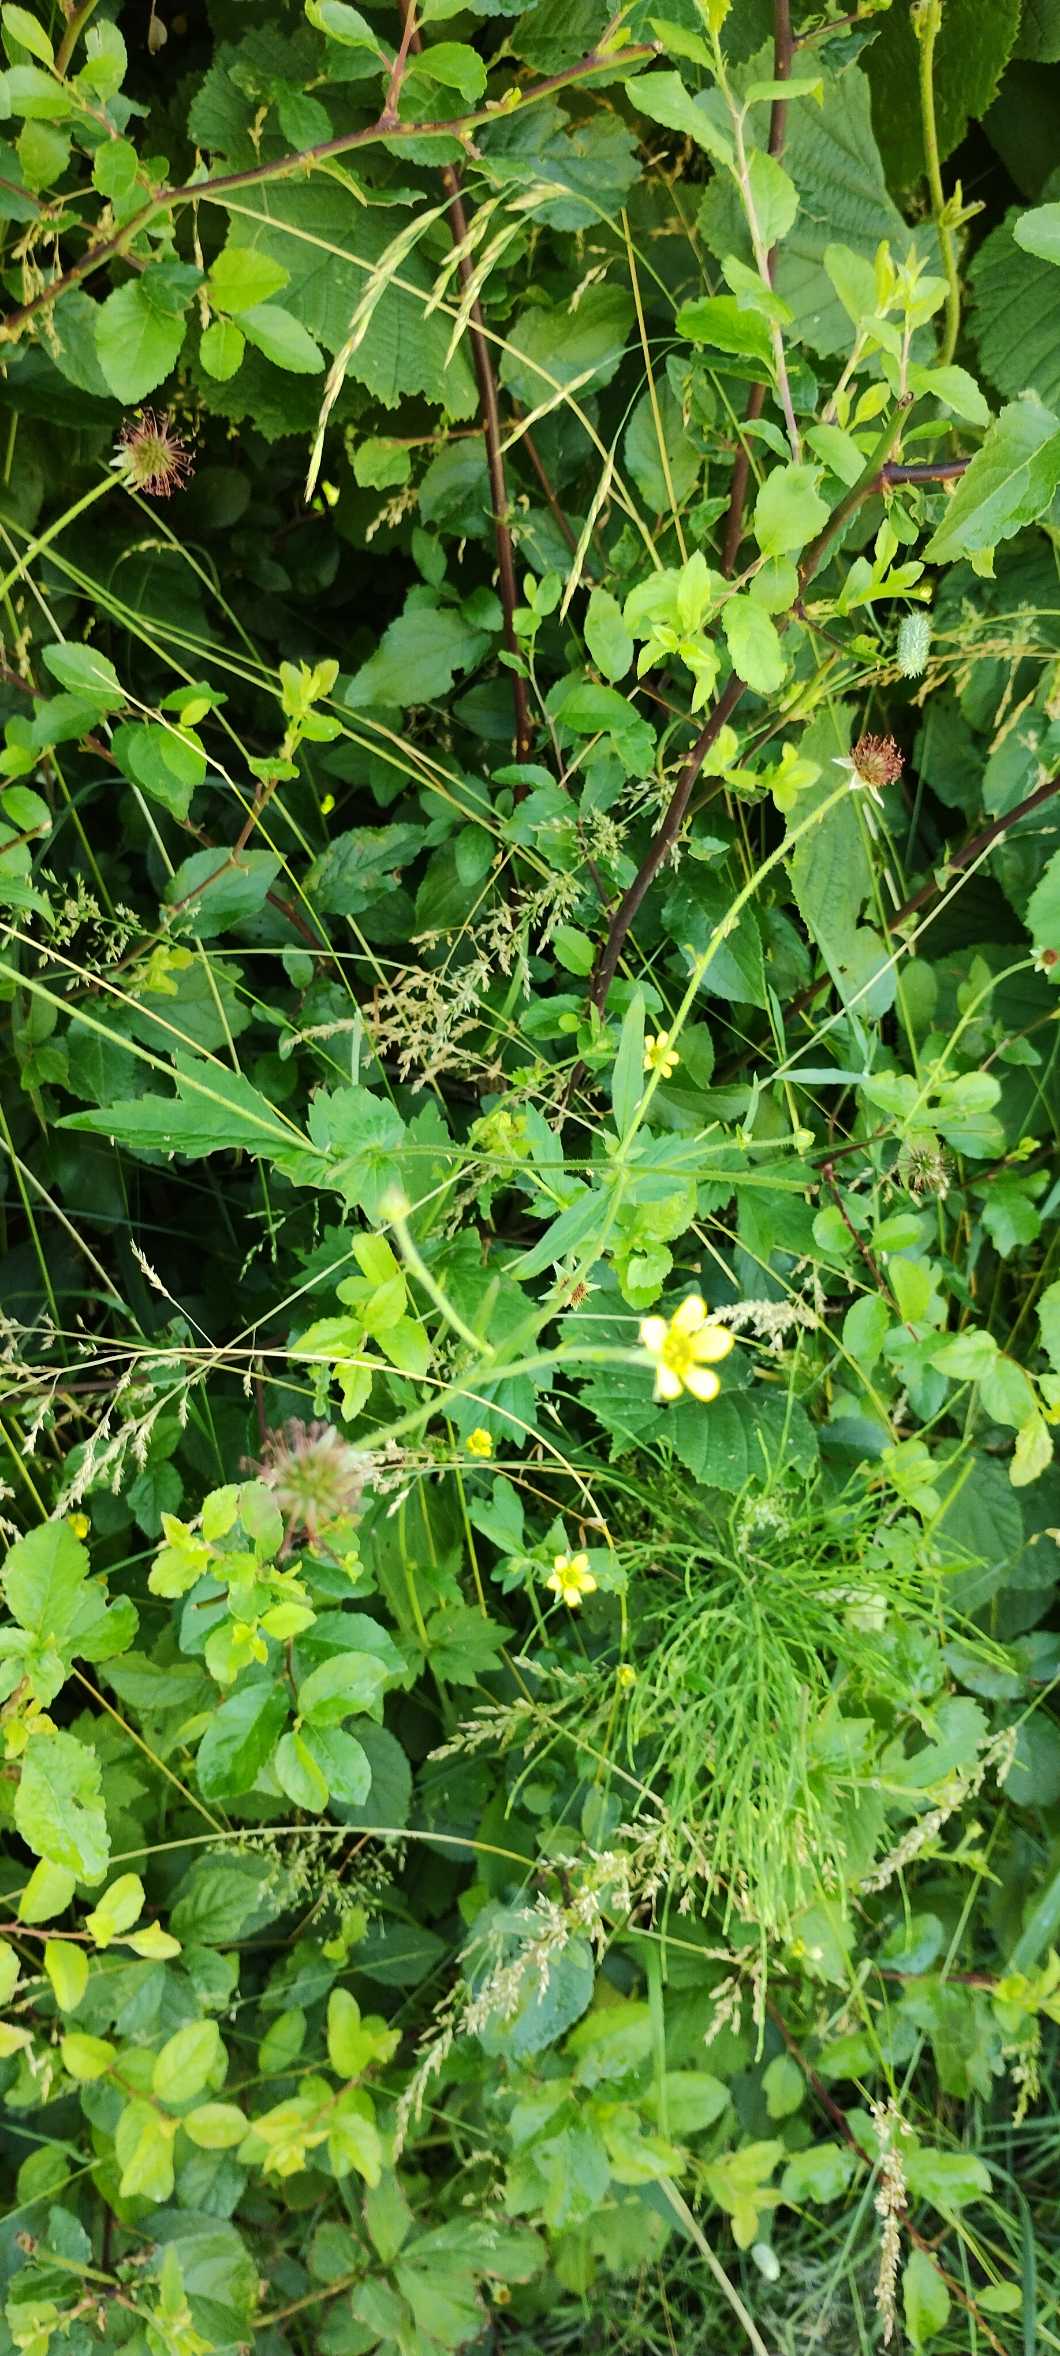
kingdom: Plantae
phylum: Tracheophyta
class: Magnoliopsida
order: Rosales
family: Rosaceae
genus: Geum
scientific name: Geum urbanum
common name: Feber-nellikerod
